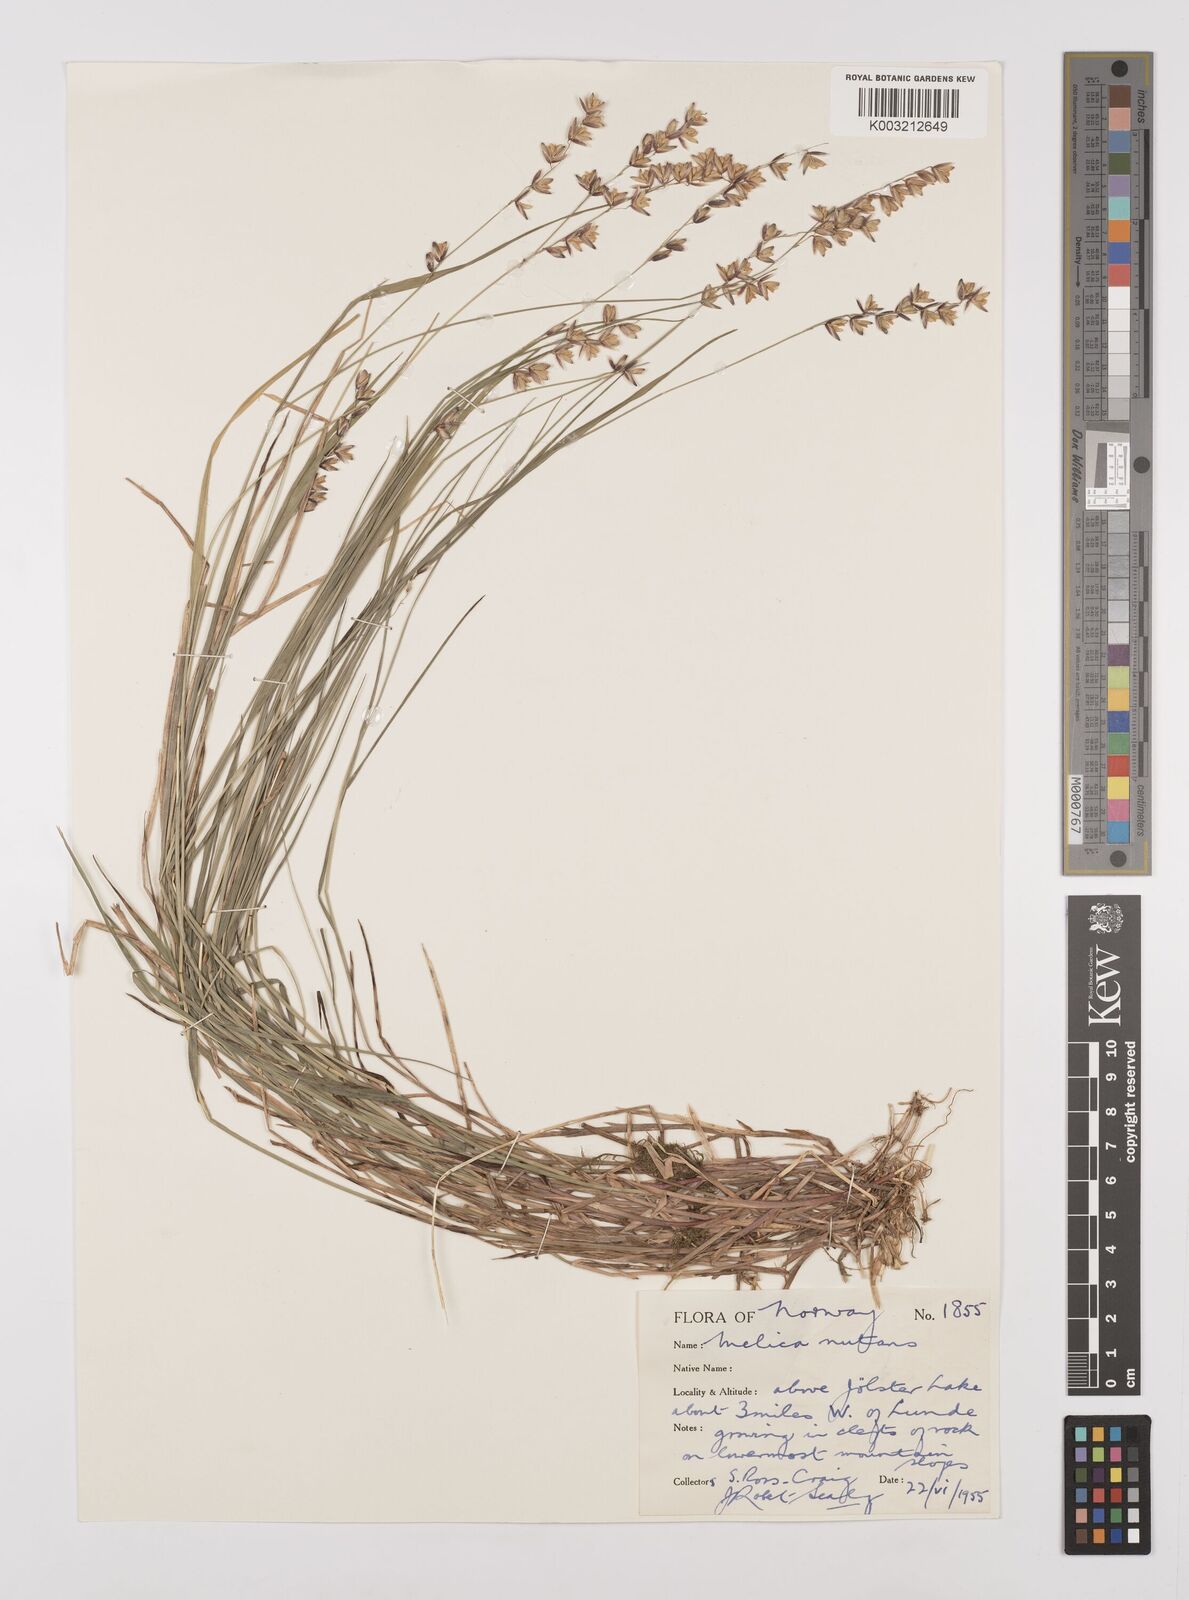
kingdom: Plantae
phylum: Tracheophyta
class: Liliopsida
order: Poales
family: Poaceae
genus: Melica
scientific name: Melica
